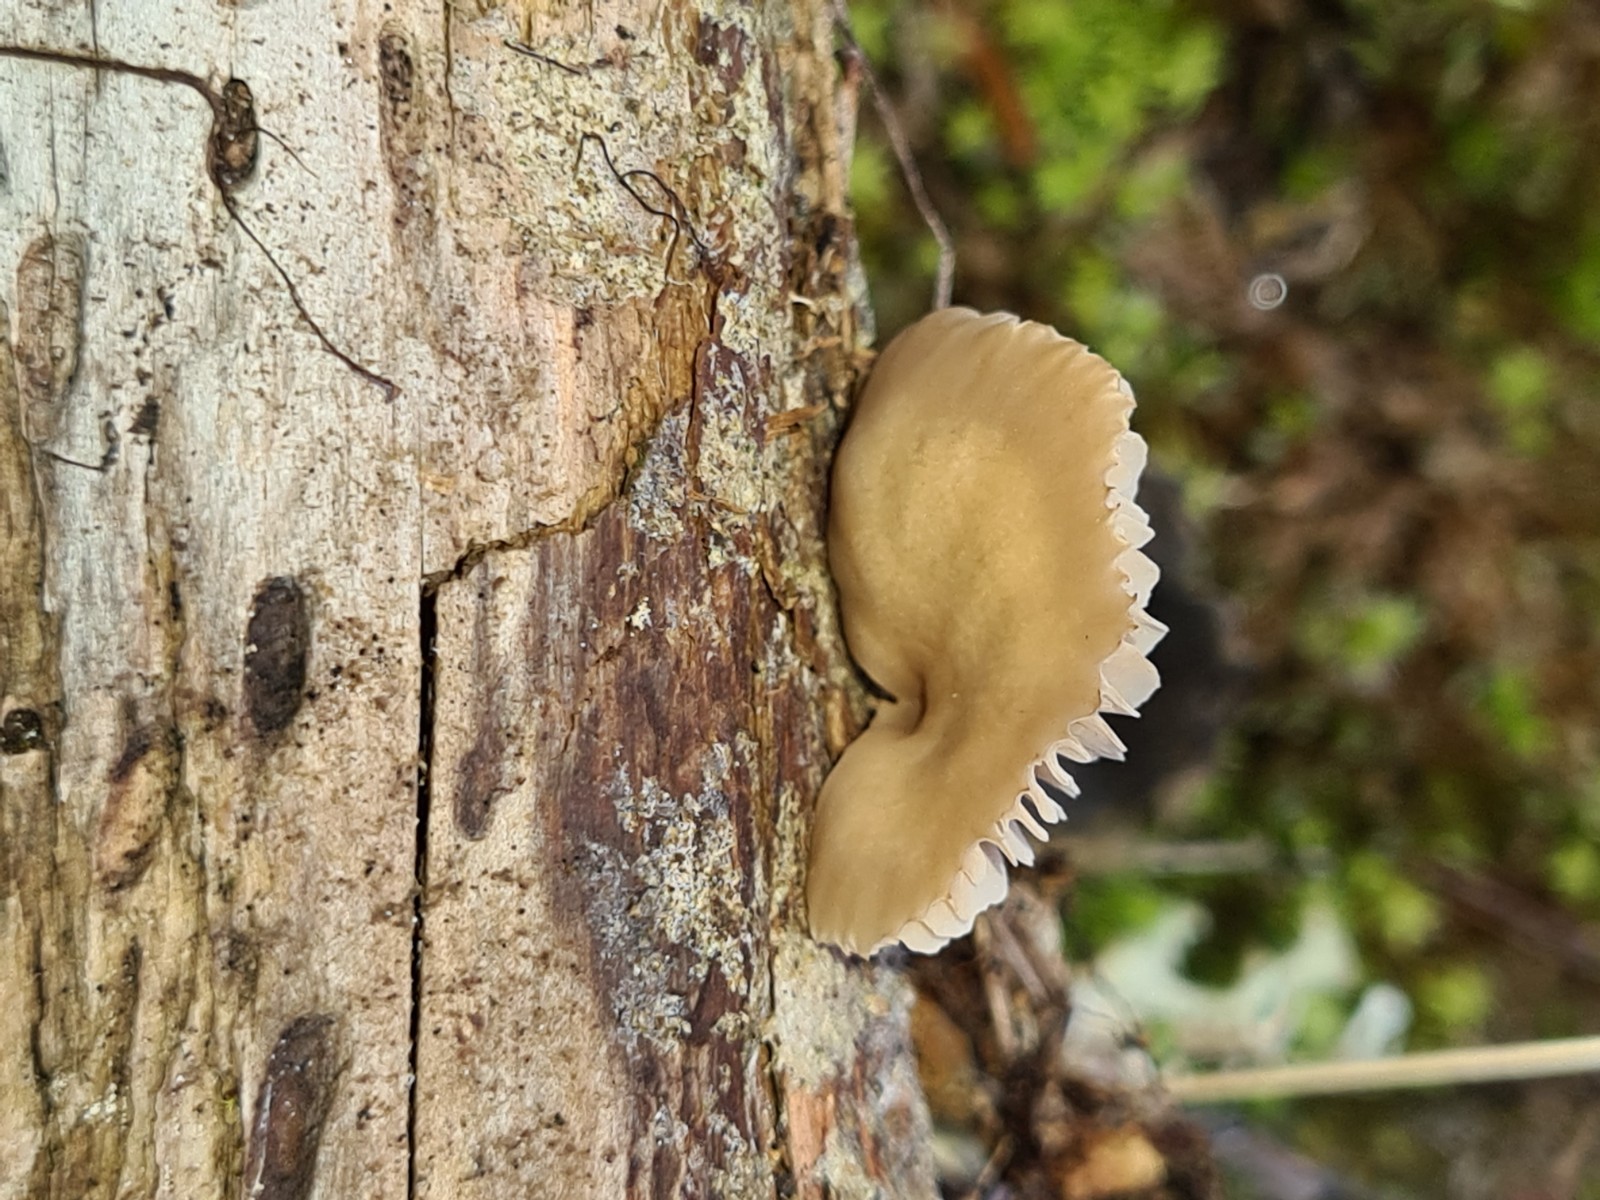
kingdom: Fungi
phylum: Basidiomycota
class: Agaricomycetes
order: Russulales
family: Auriscalpiaceae
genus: Lentinellus
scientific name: Lentinellus flabelliformis
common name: navle-savbladhat
